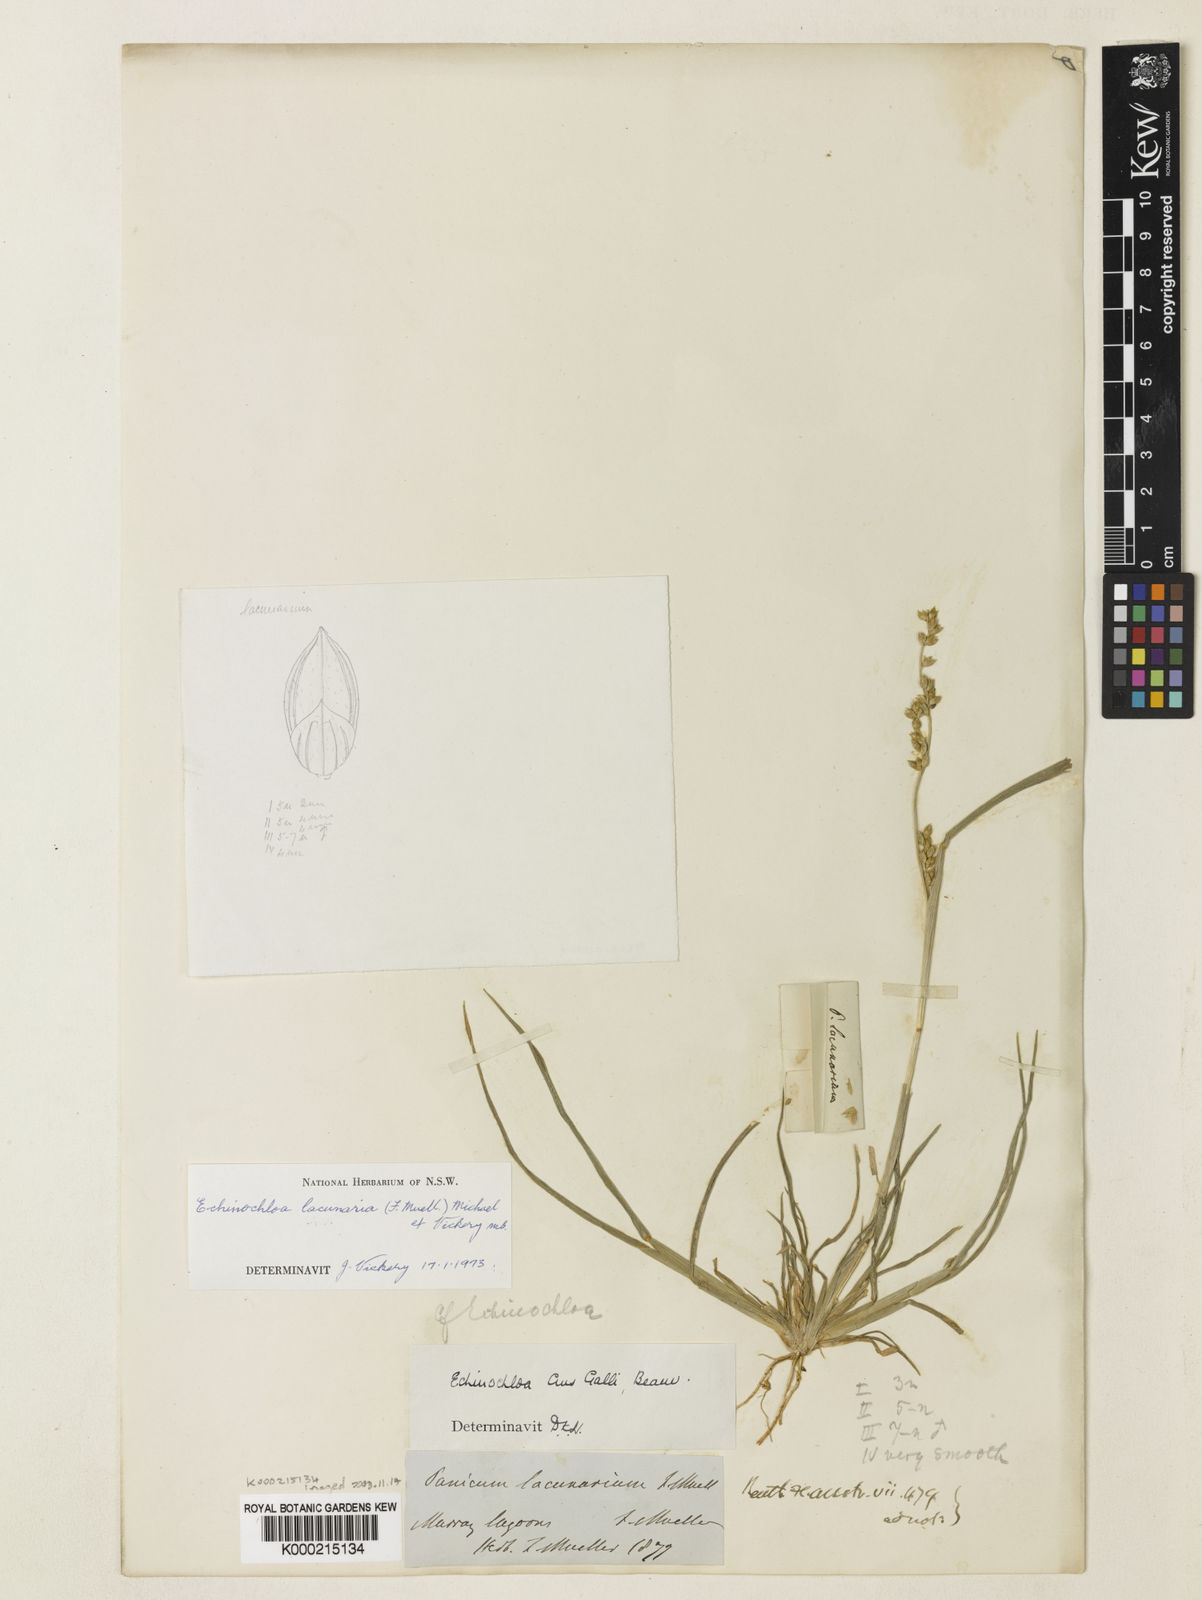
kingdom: Plantae
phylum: Tracheophyta
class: Liliopsida
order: Poales
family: Poaceae
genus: Echinochloa
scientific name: Echinochloa lacunaria
